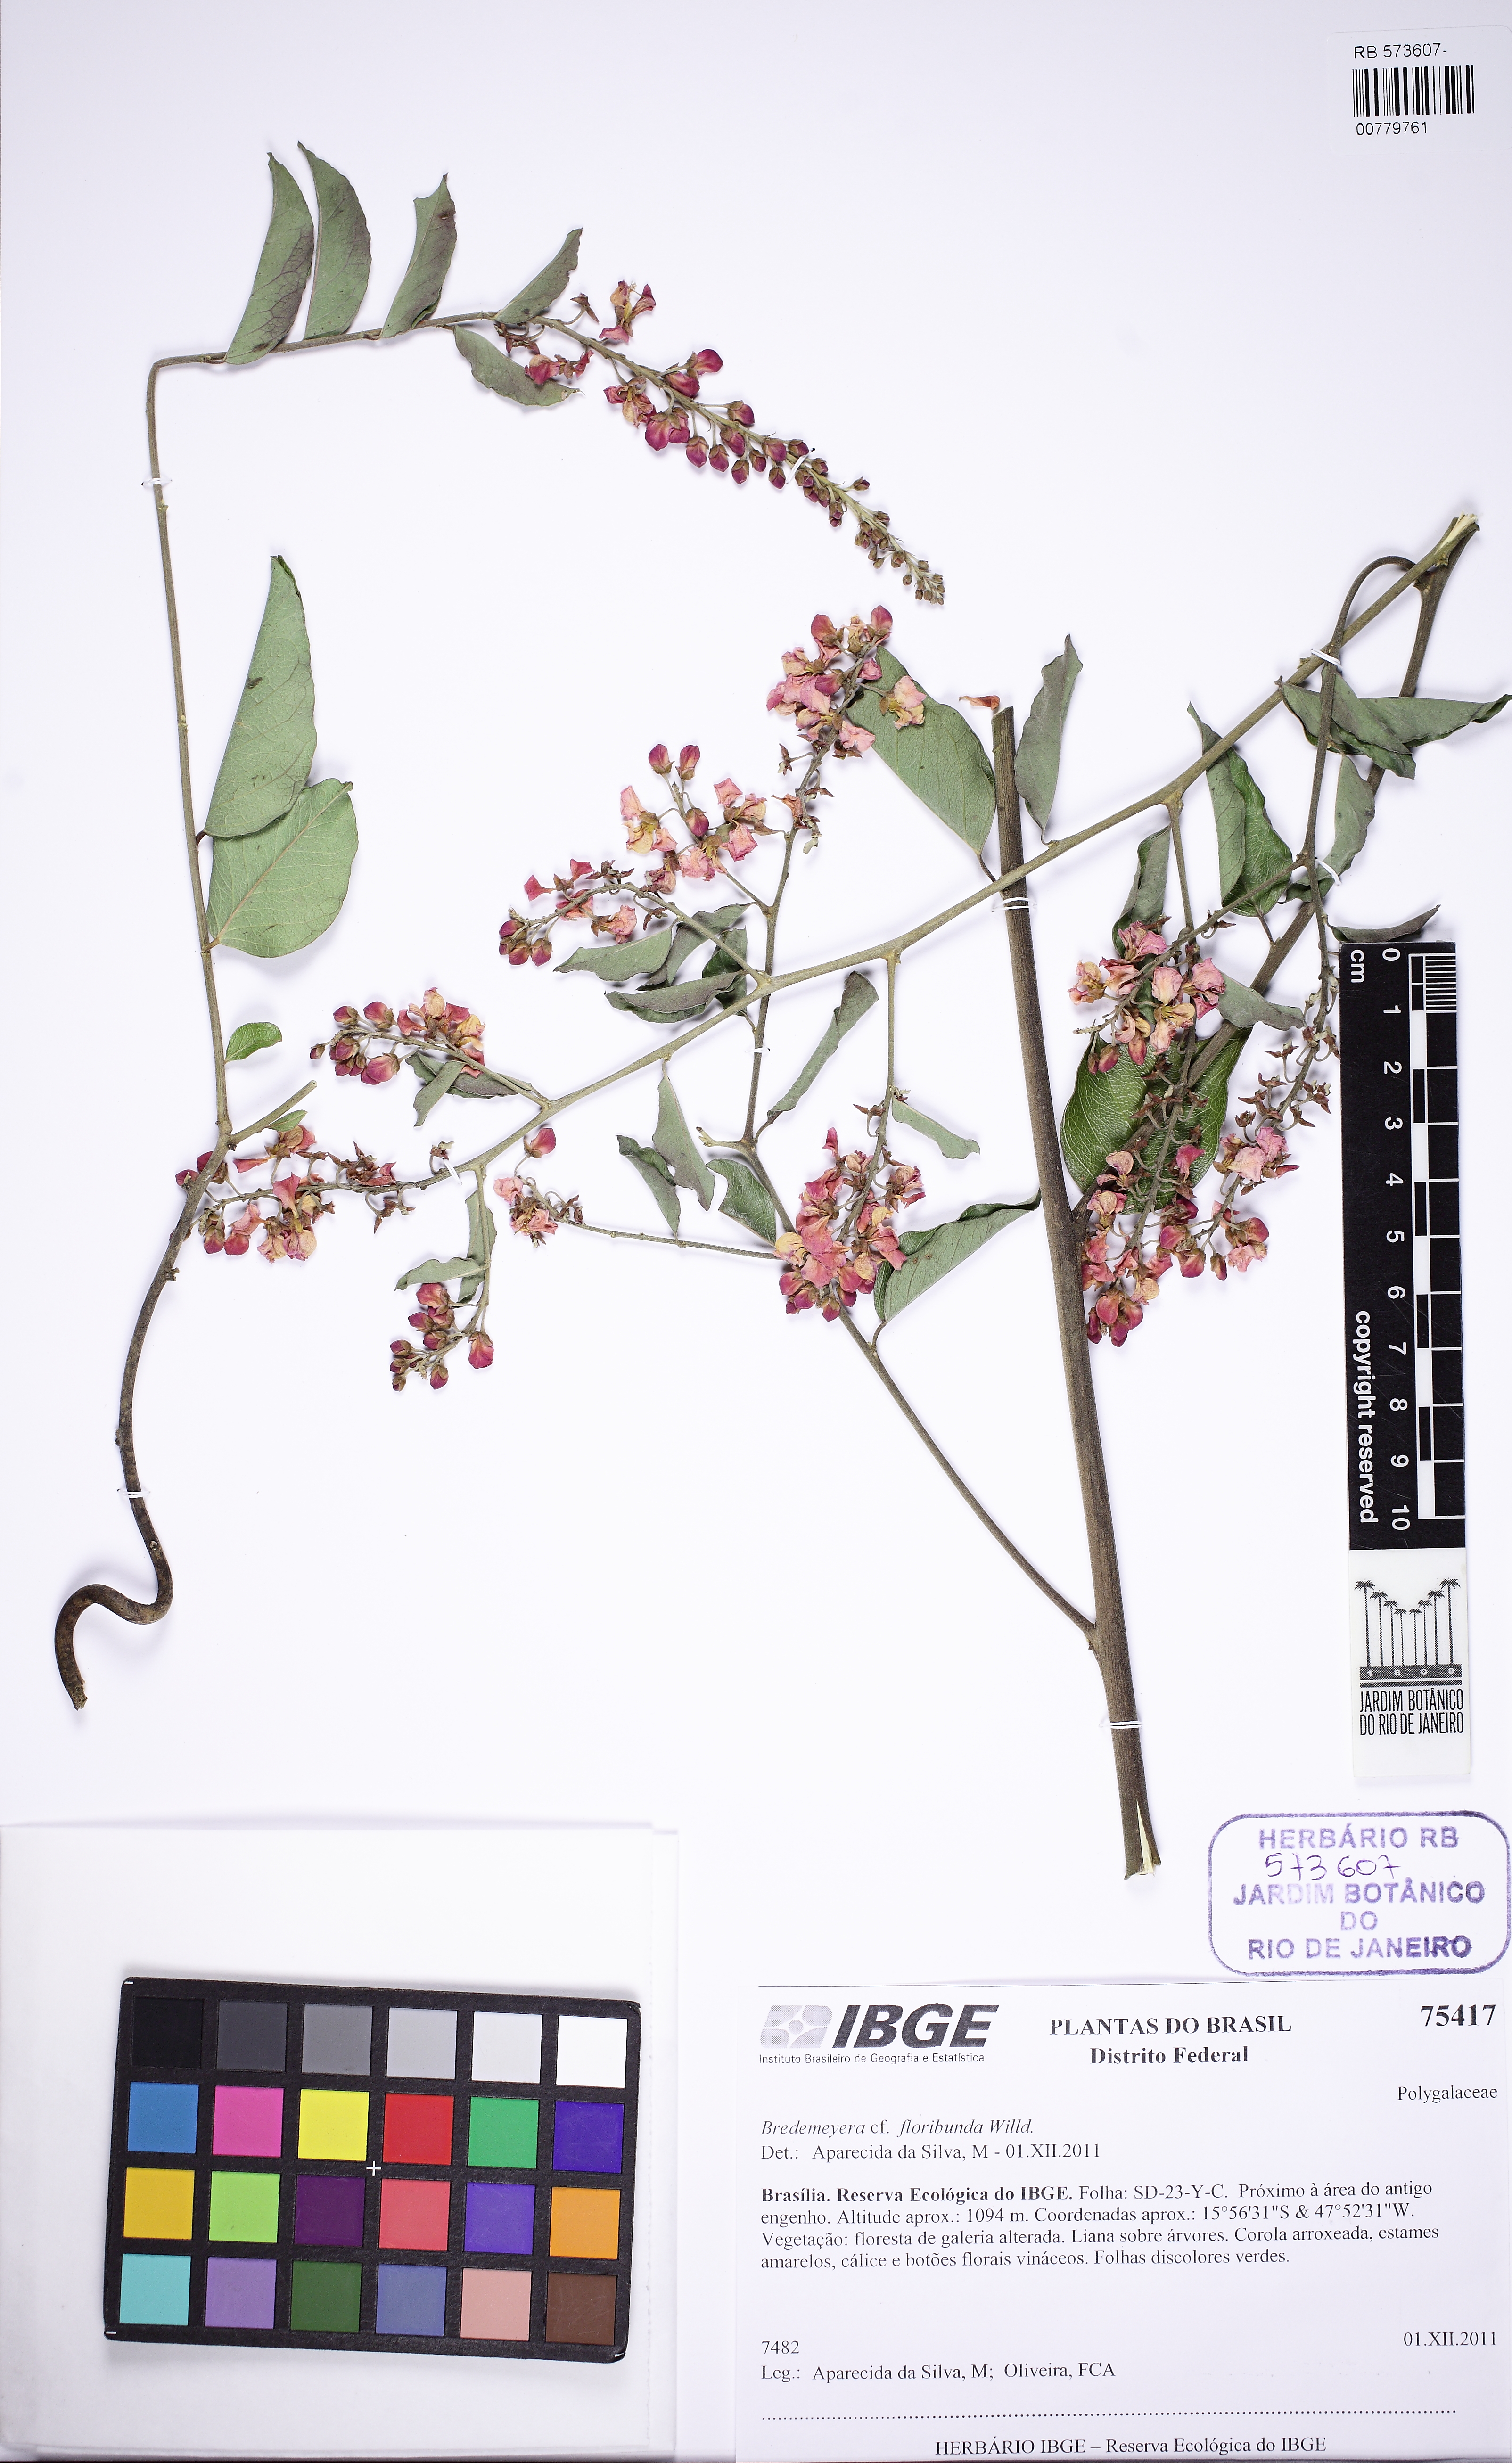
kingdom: Plantae
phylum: Tracheophyta
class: Magnoliopsida
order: Fabales
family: Polygalaceae
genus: Bredemeyera
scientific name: Bredemeyera floribunda
